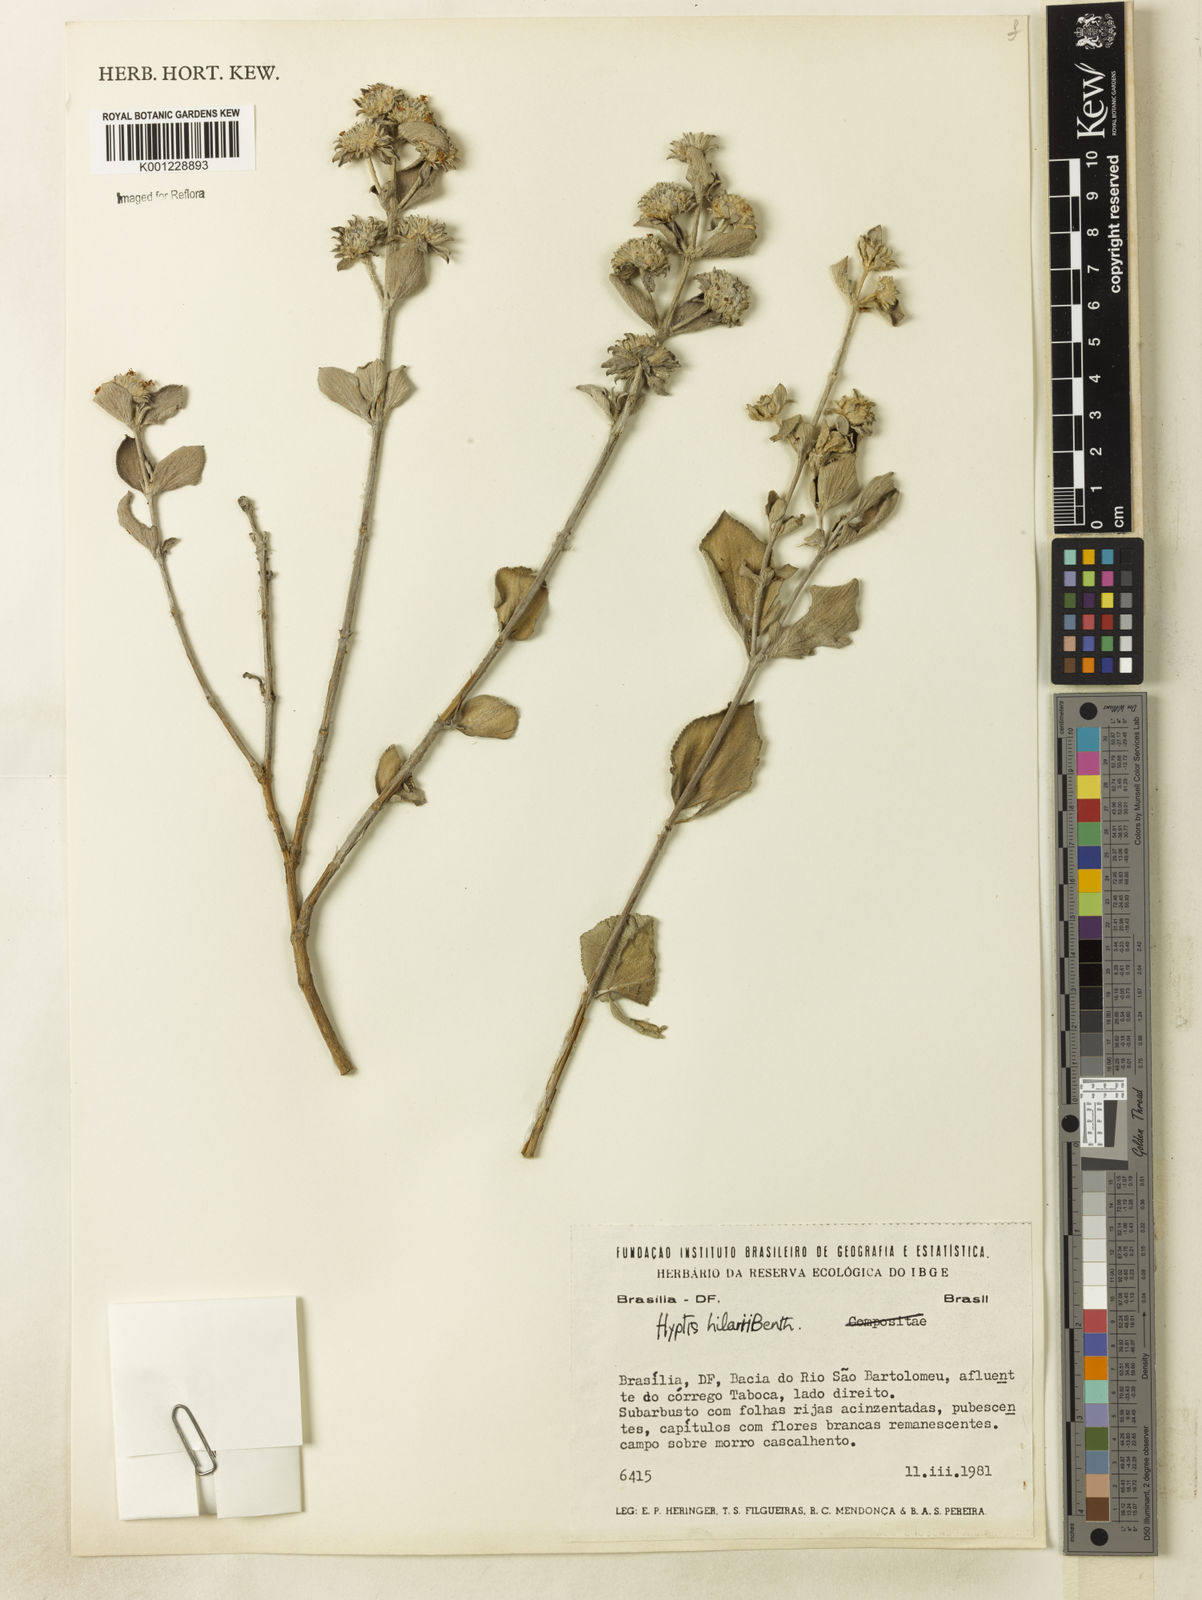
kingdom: Plantae
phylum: Tracheophyta
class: Magnoliopsida
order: Lamiales
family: Lamiaceae
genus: Hyptis
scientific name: Hyptis hilarii
